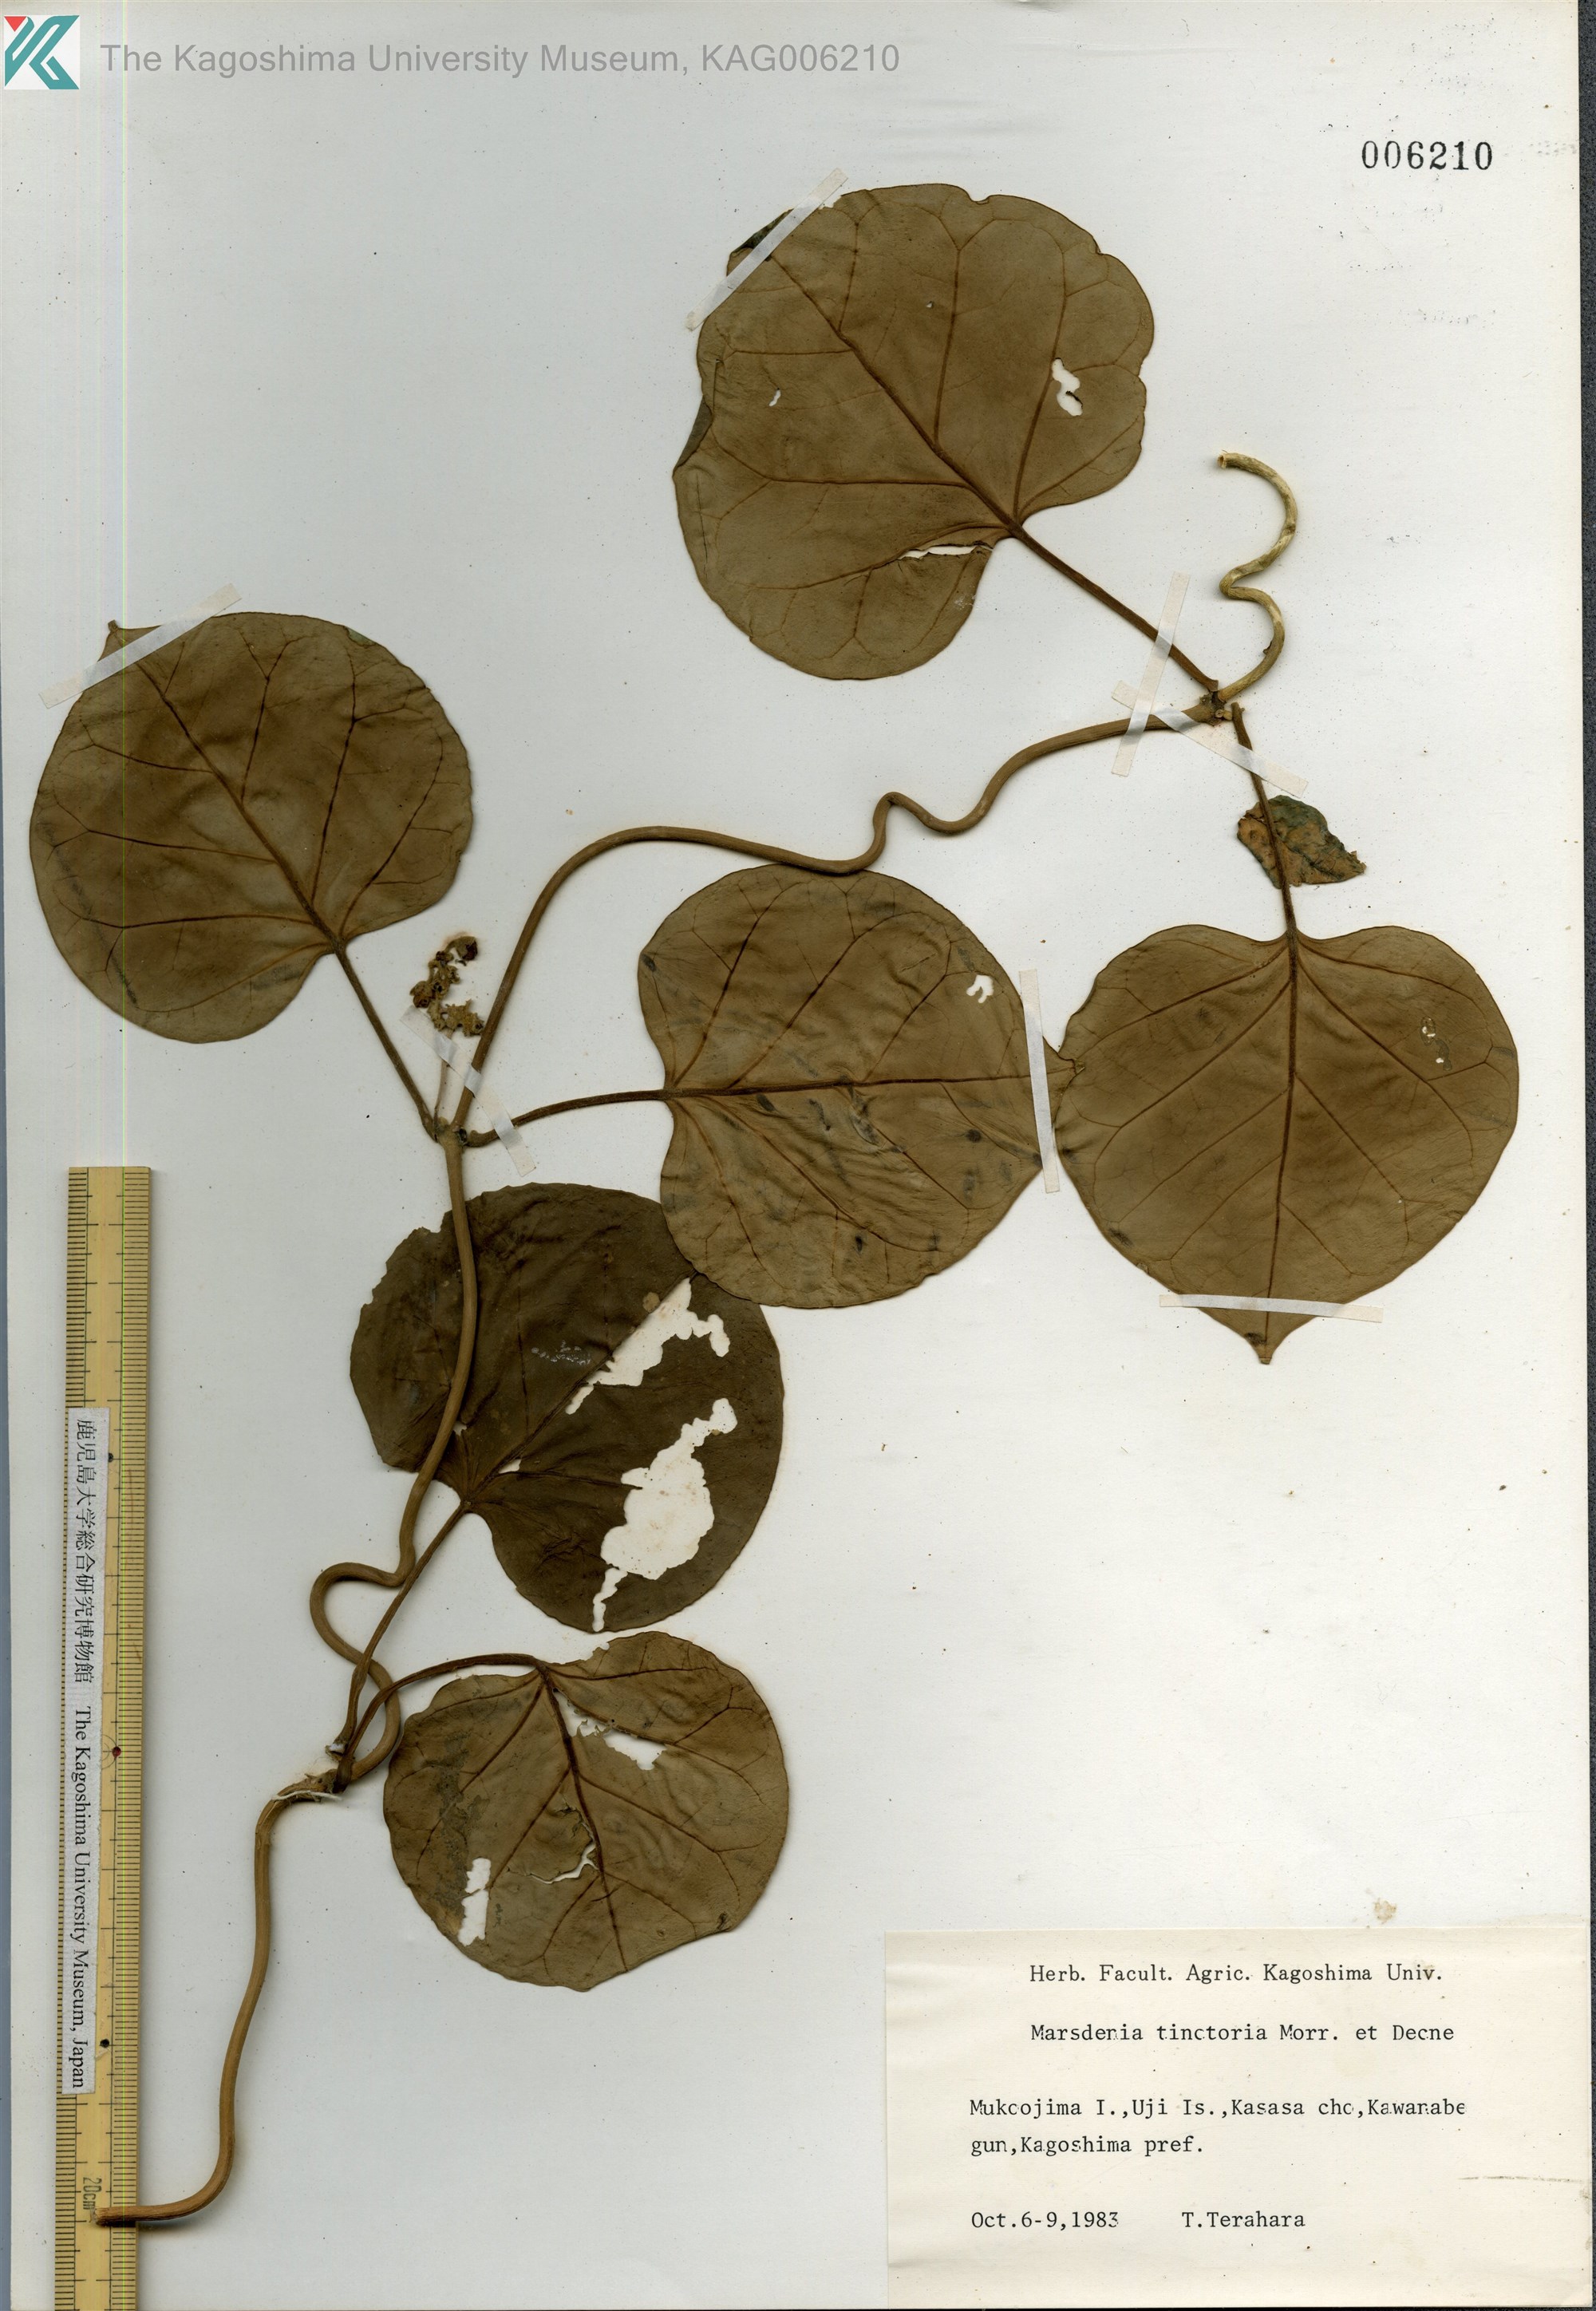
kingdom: Plantae
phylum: Tracheophyta
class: Magnoliopsida
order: Gentianales
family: Apocynaceae
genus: Marsdenia
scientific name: Marsdenia tinctoria
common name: Climbing-indigo
